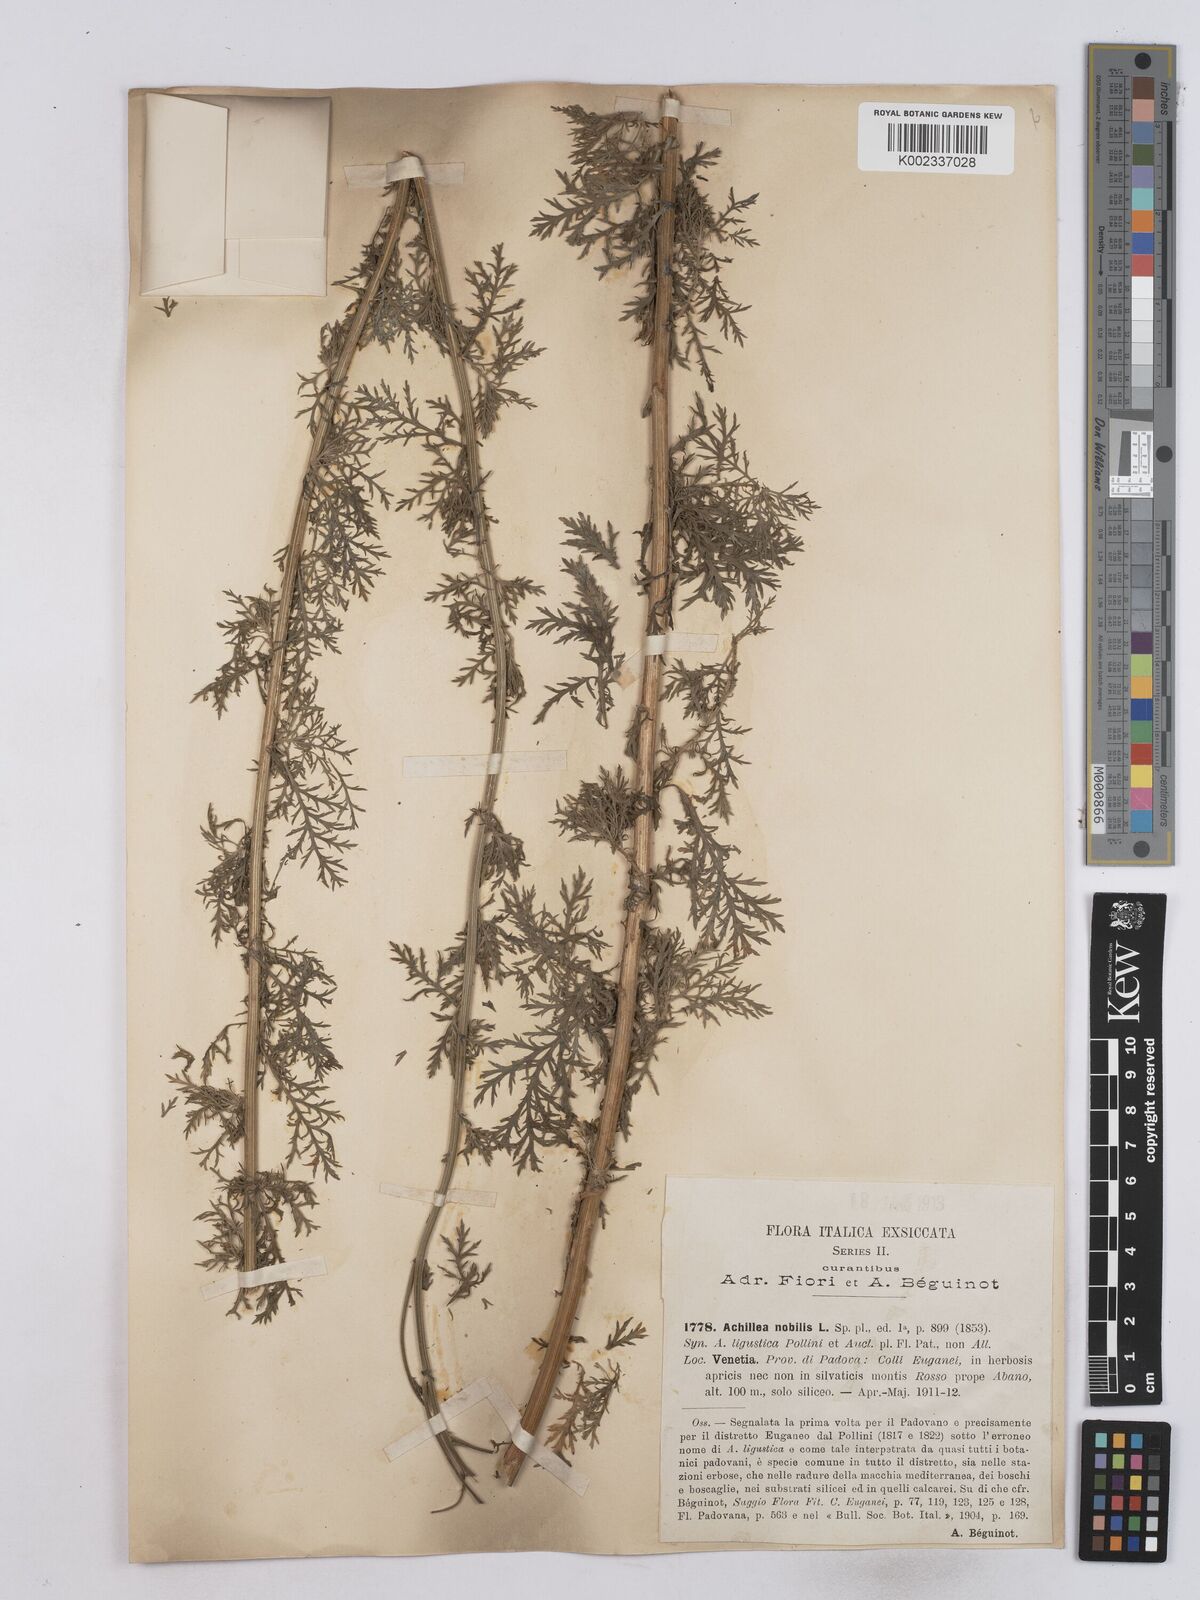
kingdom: Plantae
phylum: Tracheophyta
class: Magnoliopsida
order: Asterales
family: Asteraceae
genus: Achillea
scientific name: Achillea nobilis
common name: Noble yarrow
